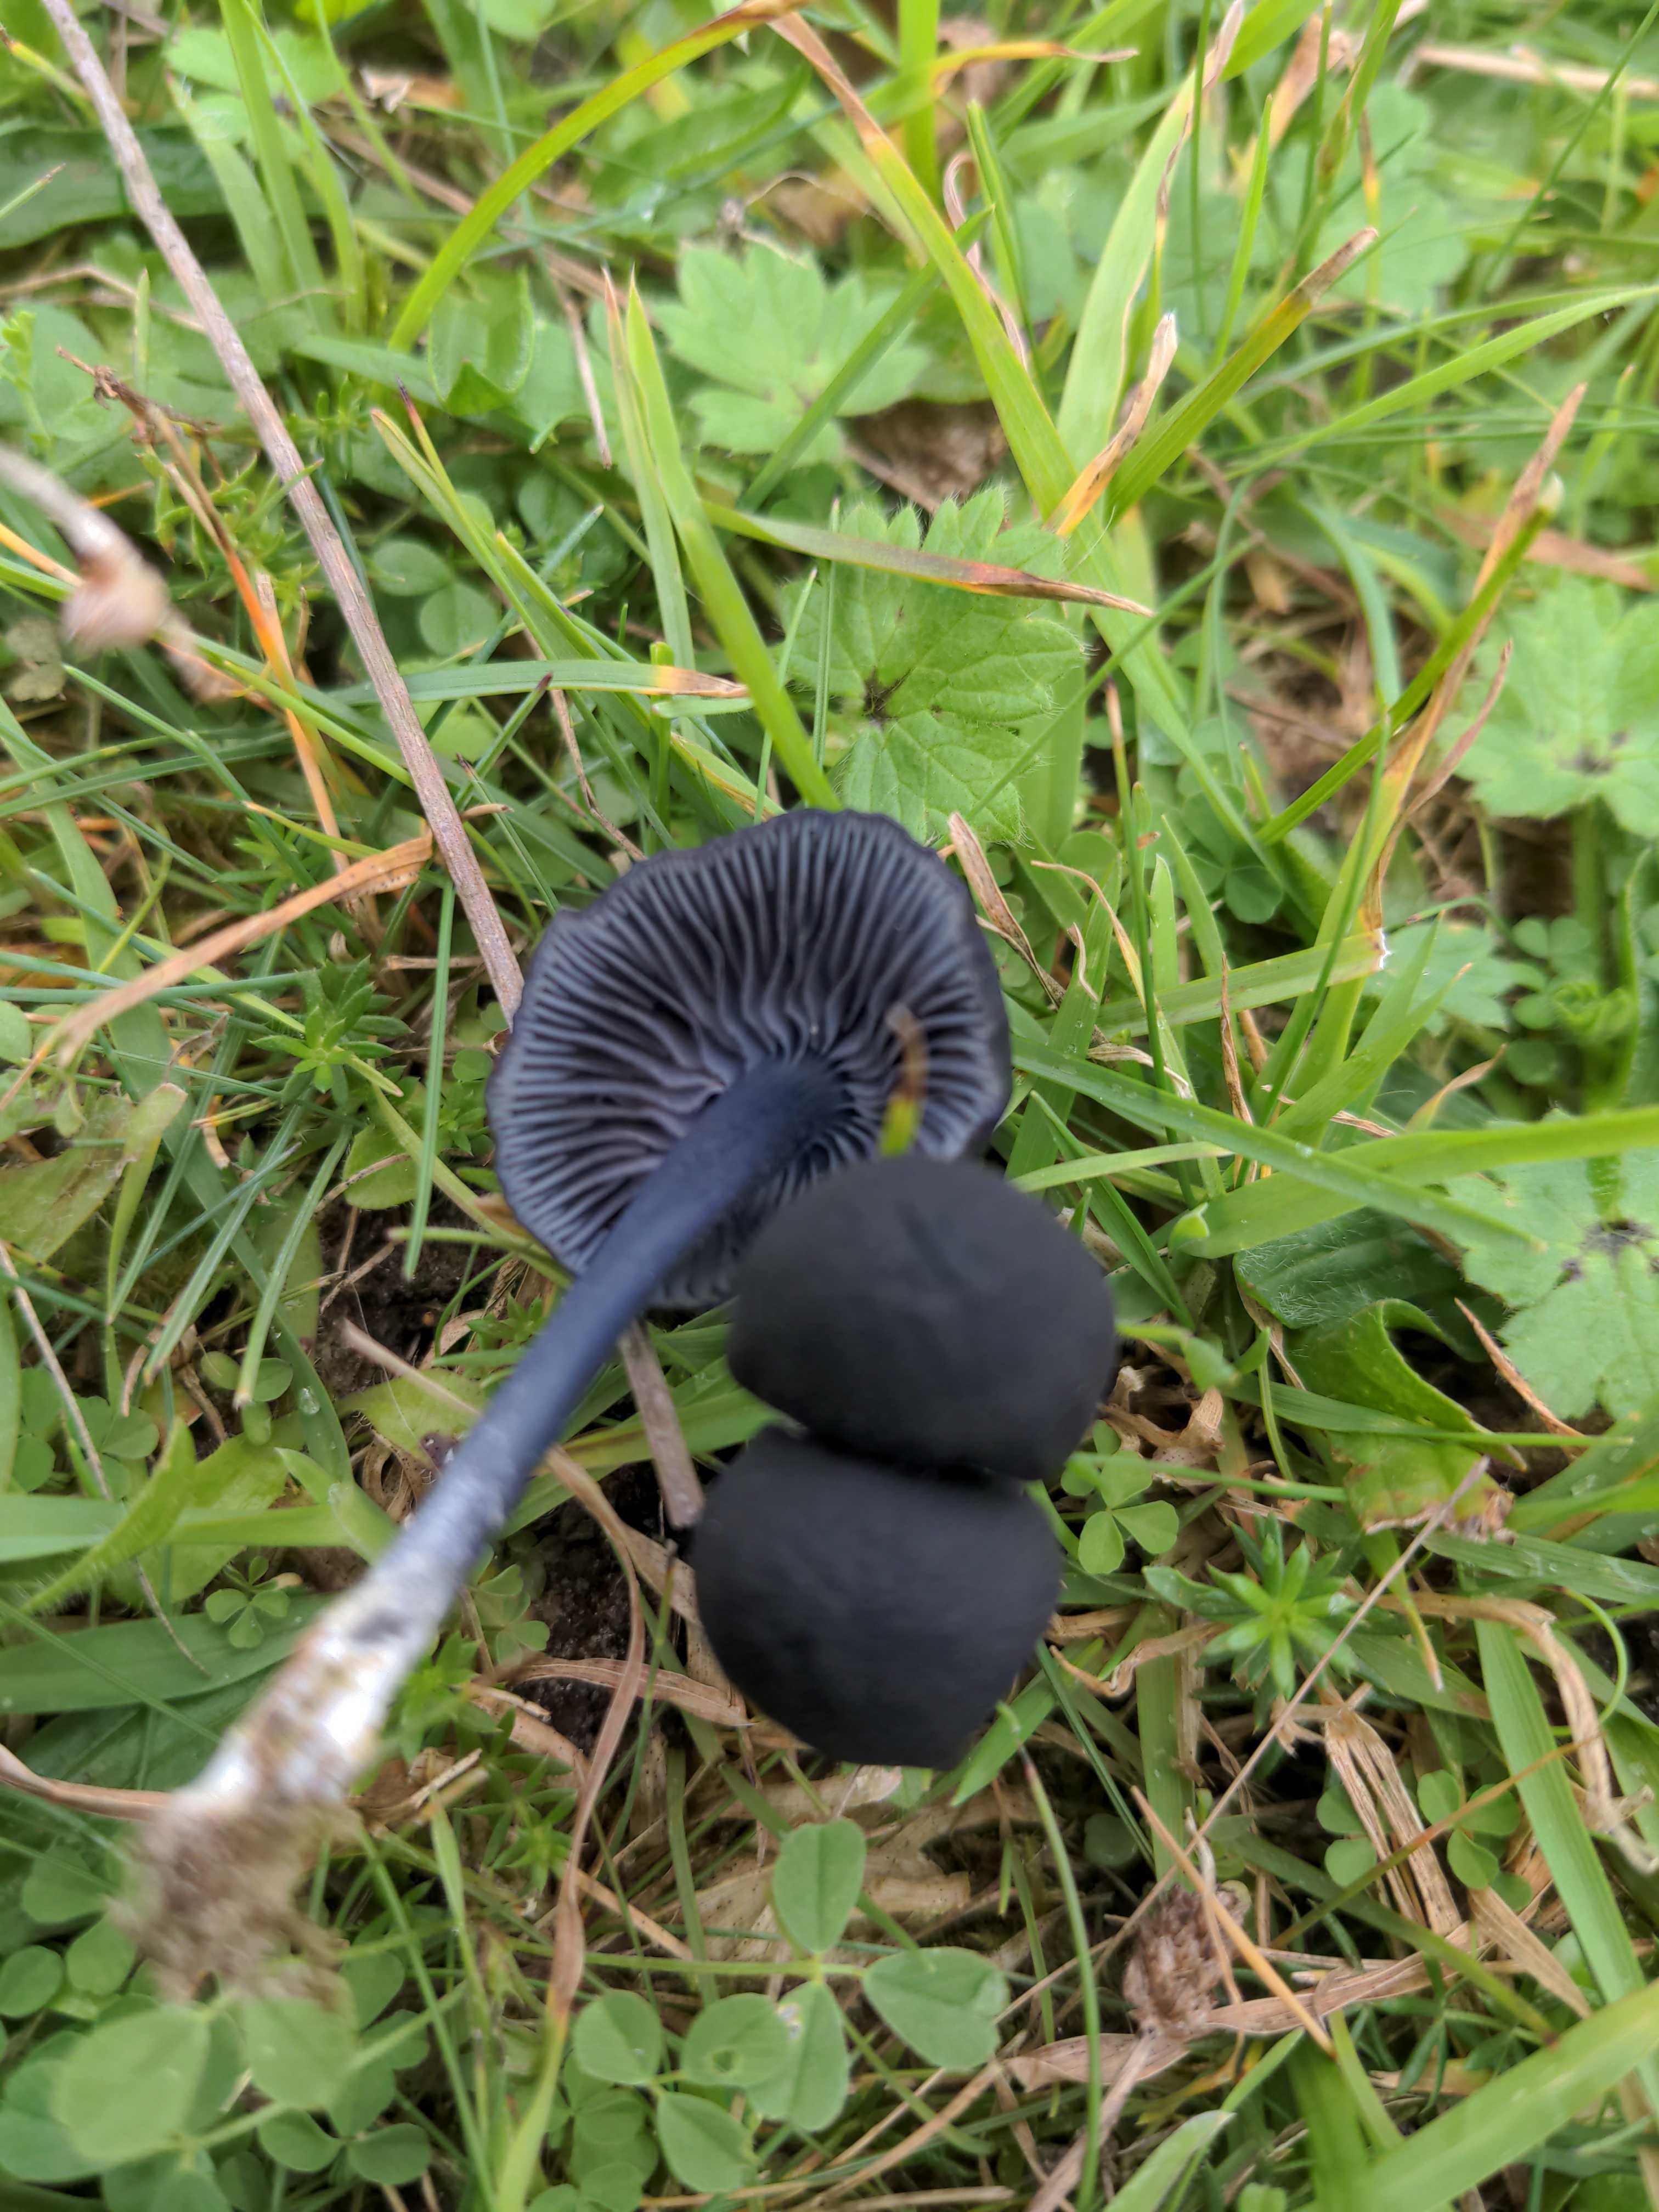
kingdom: Fungi
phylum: Basidiomycota
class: Agaricomycetes
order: Agaricales
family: Entolomataceae
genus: Entoloma
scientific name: Entoloma chalybeum
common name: blåbladet rødblad
